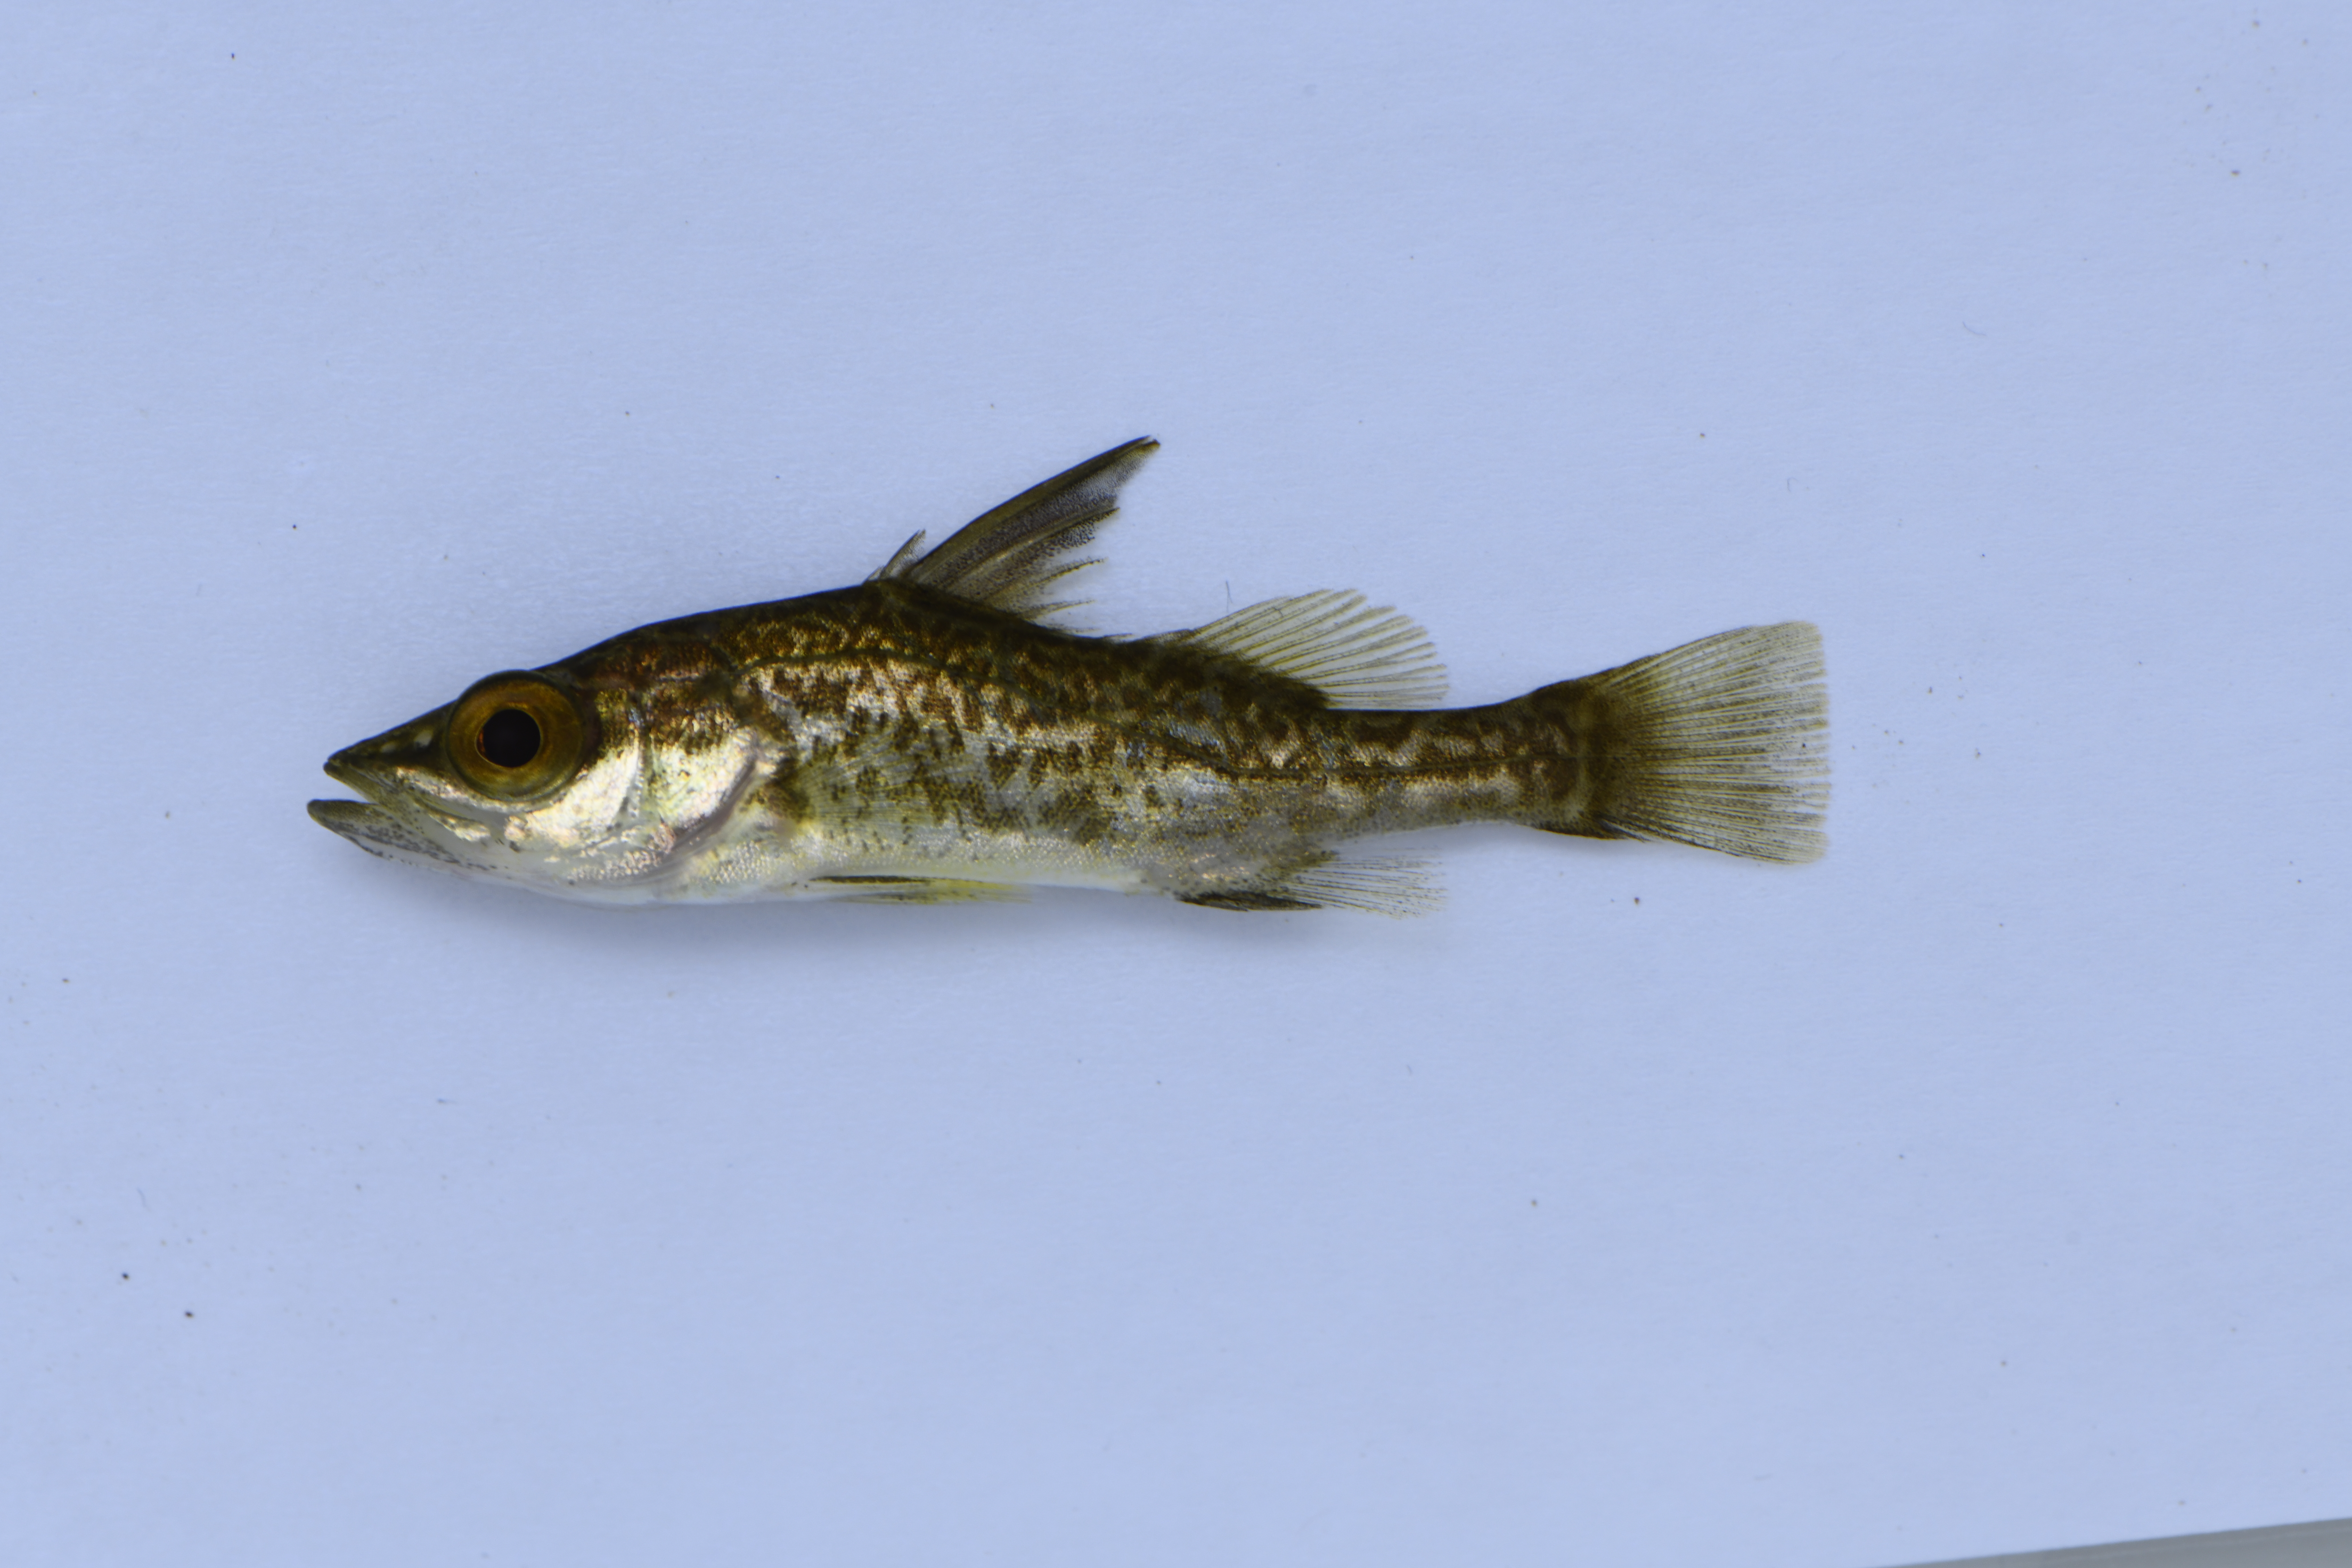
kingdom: Animalia
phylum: Chordata
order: Perciformes
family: Latidae
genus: Lates
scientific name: Lates
